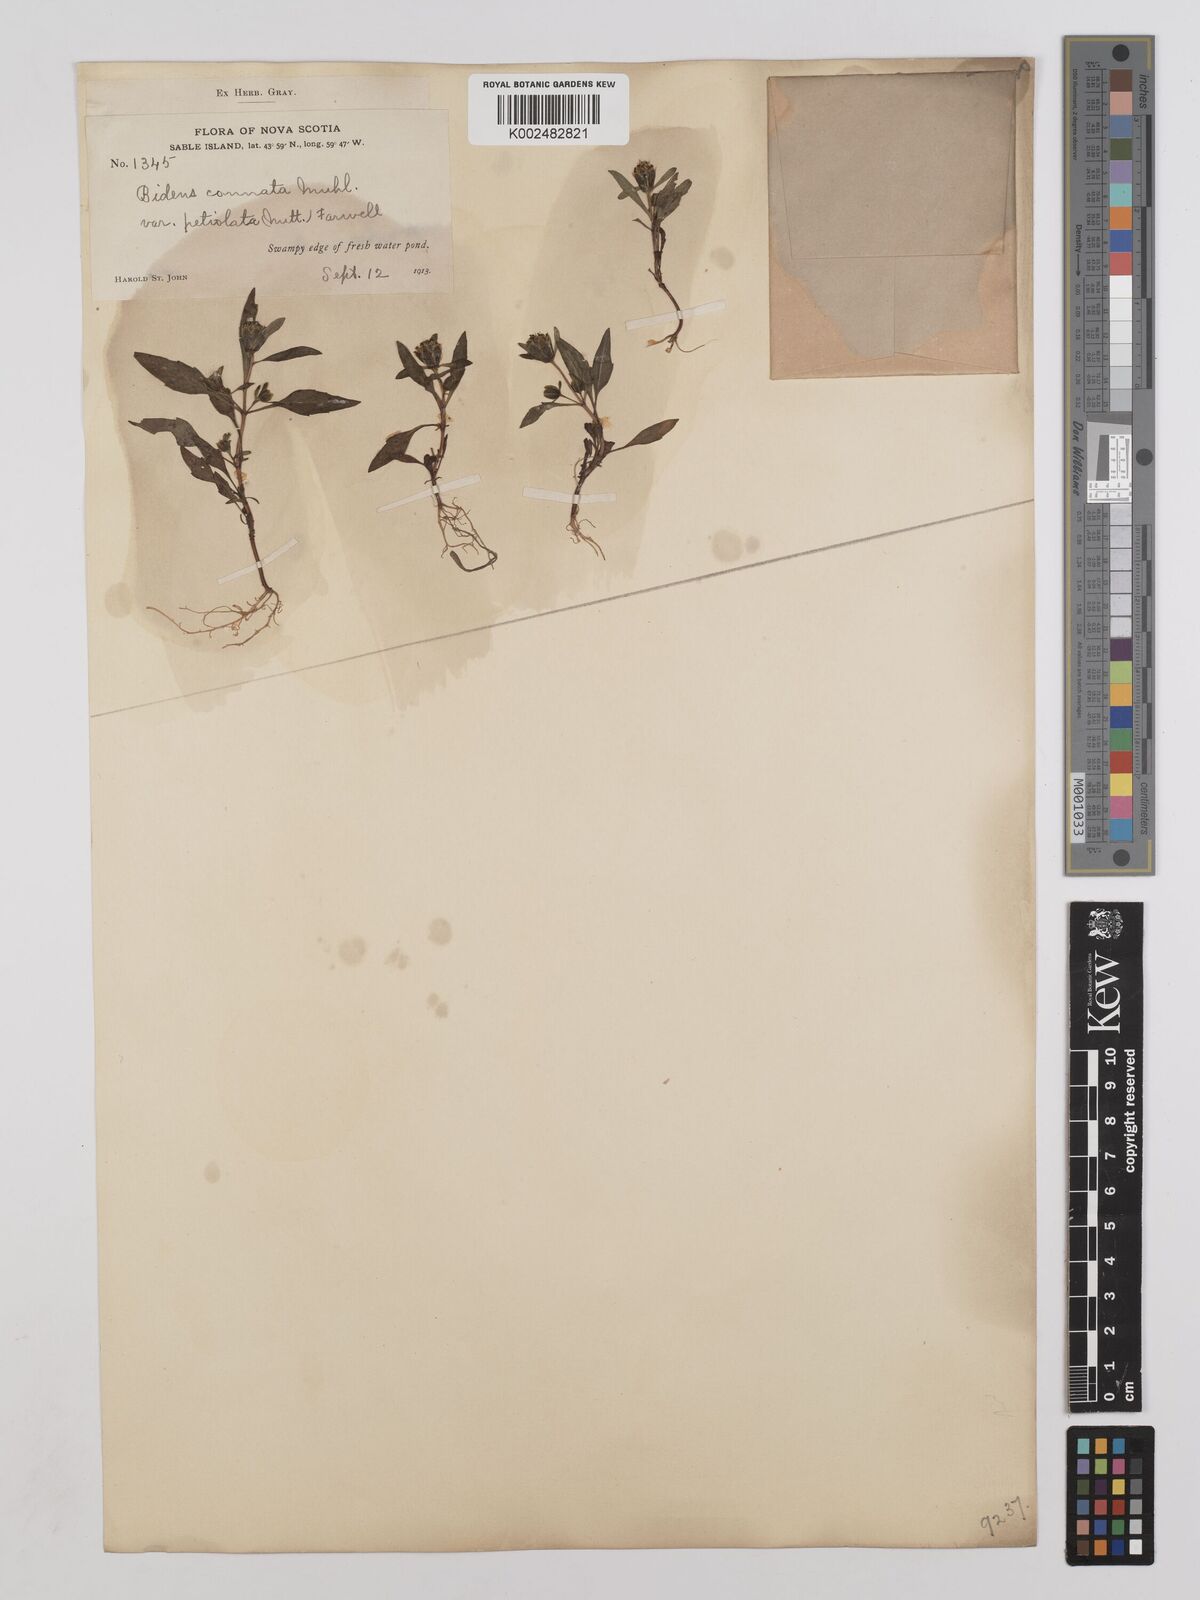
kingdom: Plantae
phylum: Tracheophyta
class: Magnoliopsida
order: Asterales
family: Asteraceae
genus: Bidens
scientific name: Bidens connata
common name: London bur-marigold
